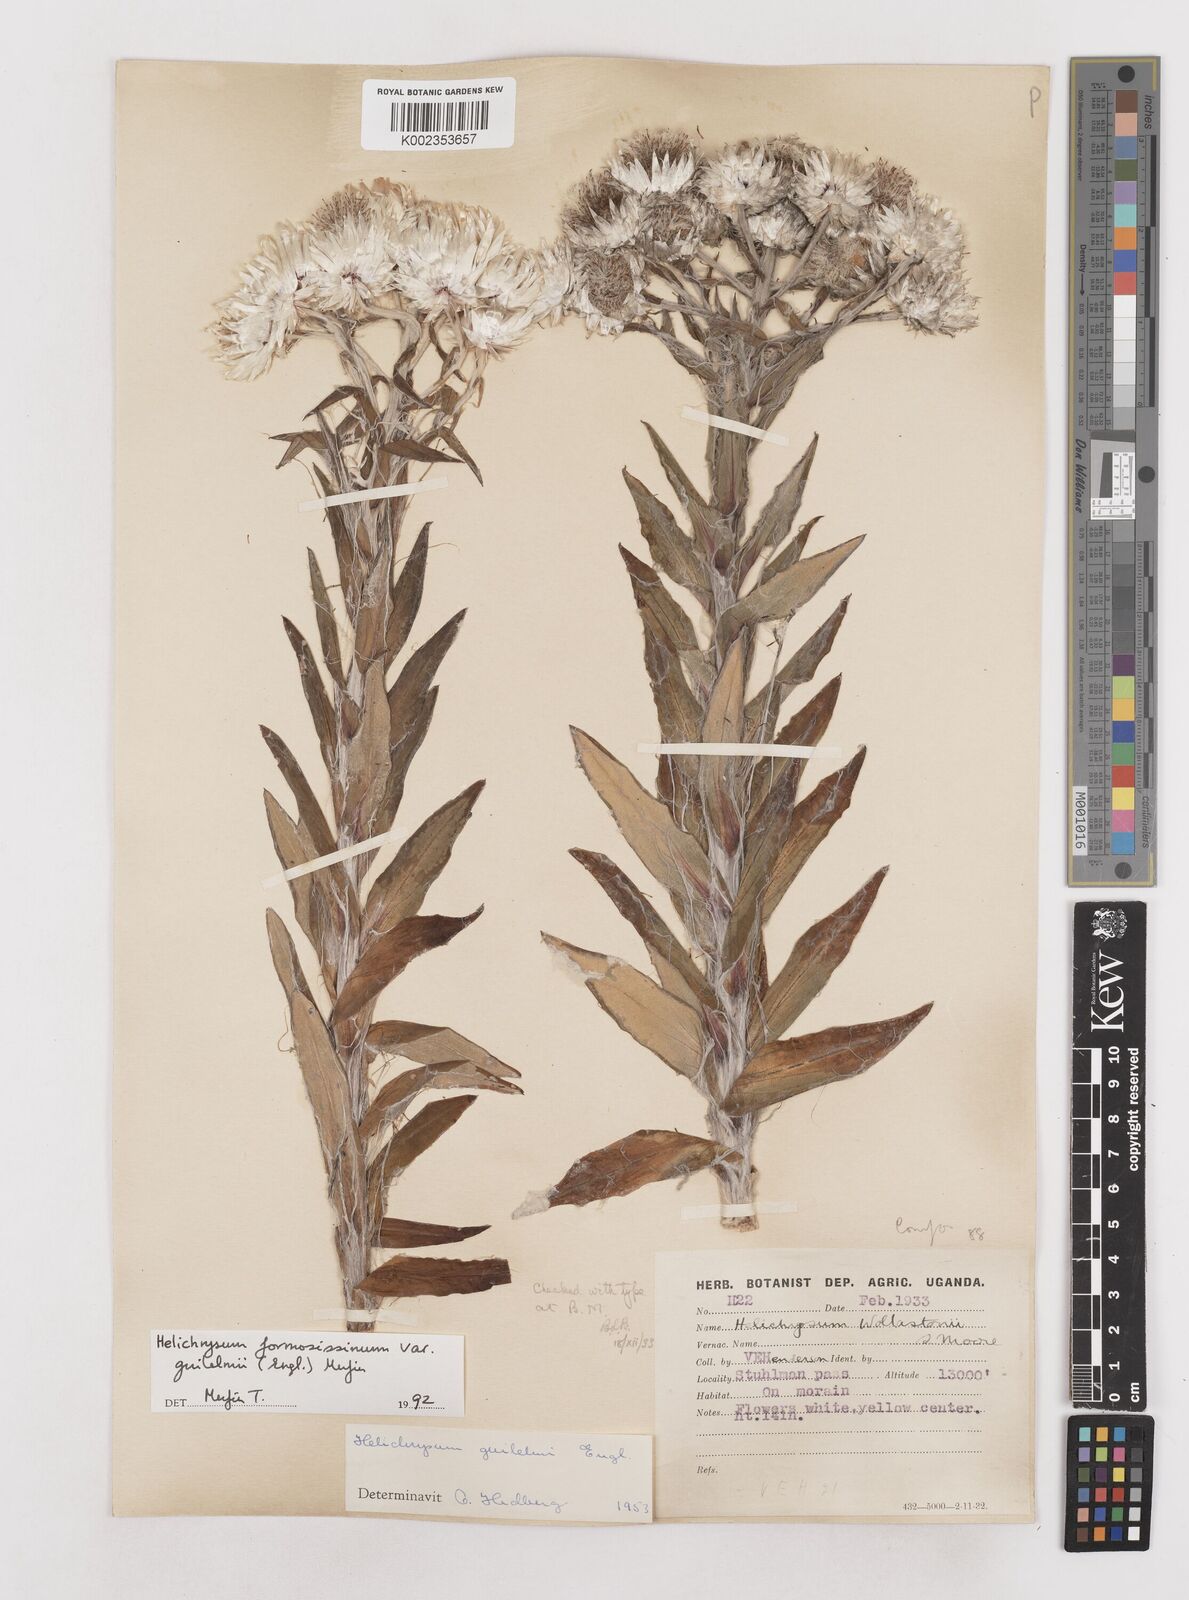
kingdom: Plantae
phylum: Tracheophyta
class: Magnoliopsida
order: Asterales
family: Asteraceae
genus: Helichrysum
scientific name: Helichrysum formosissimum
